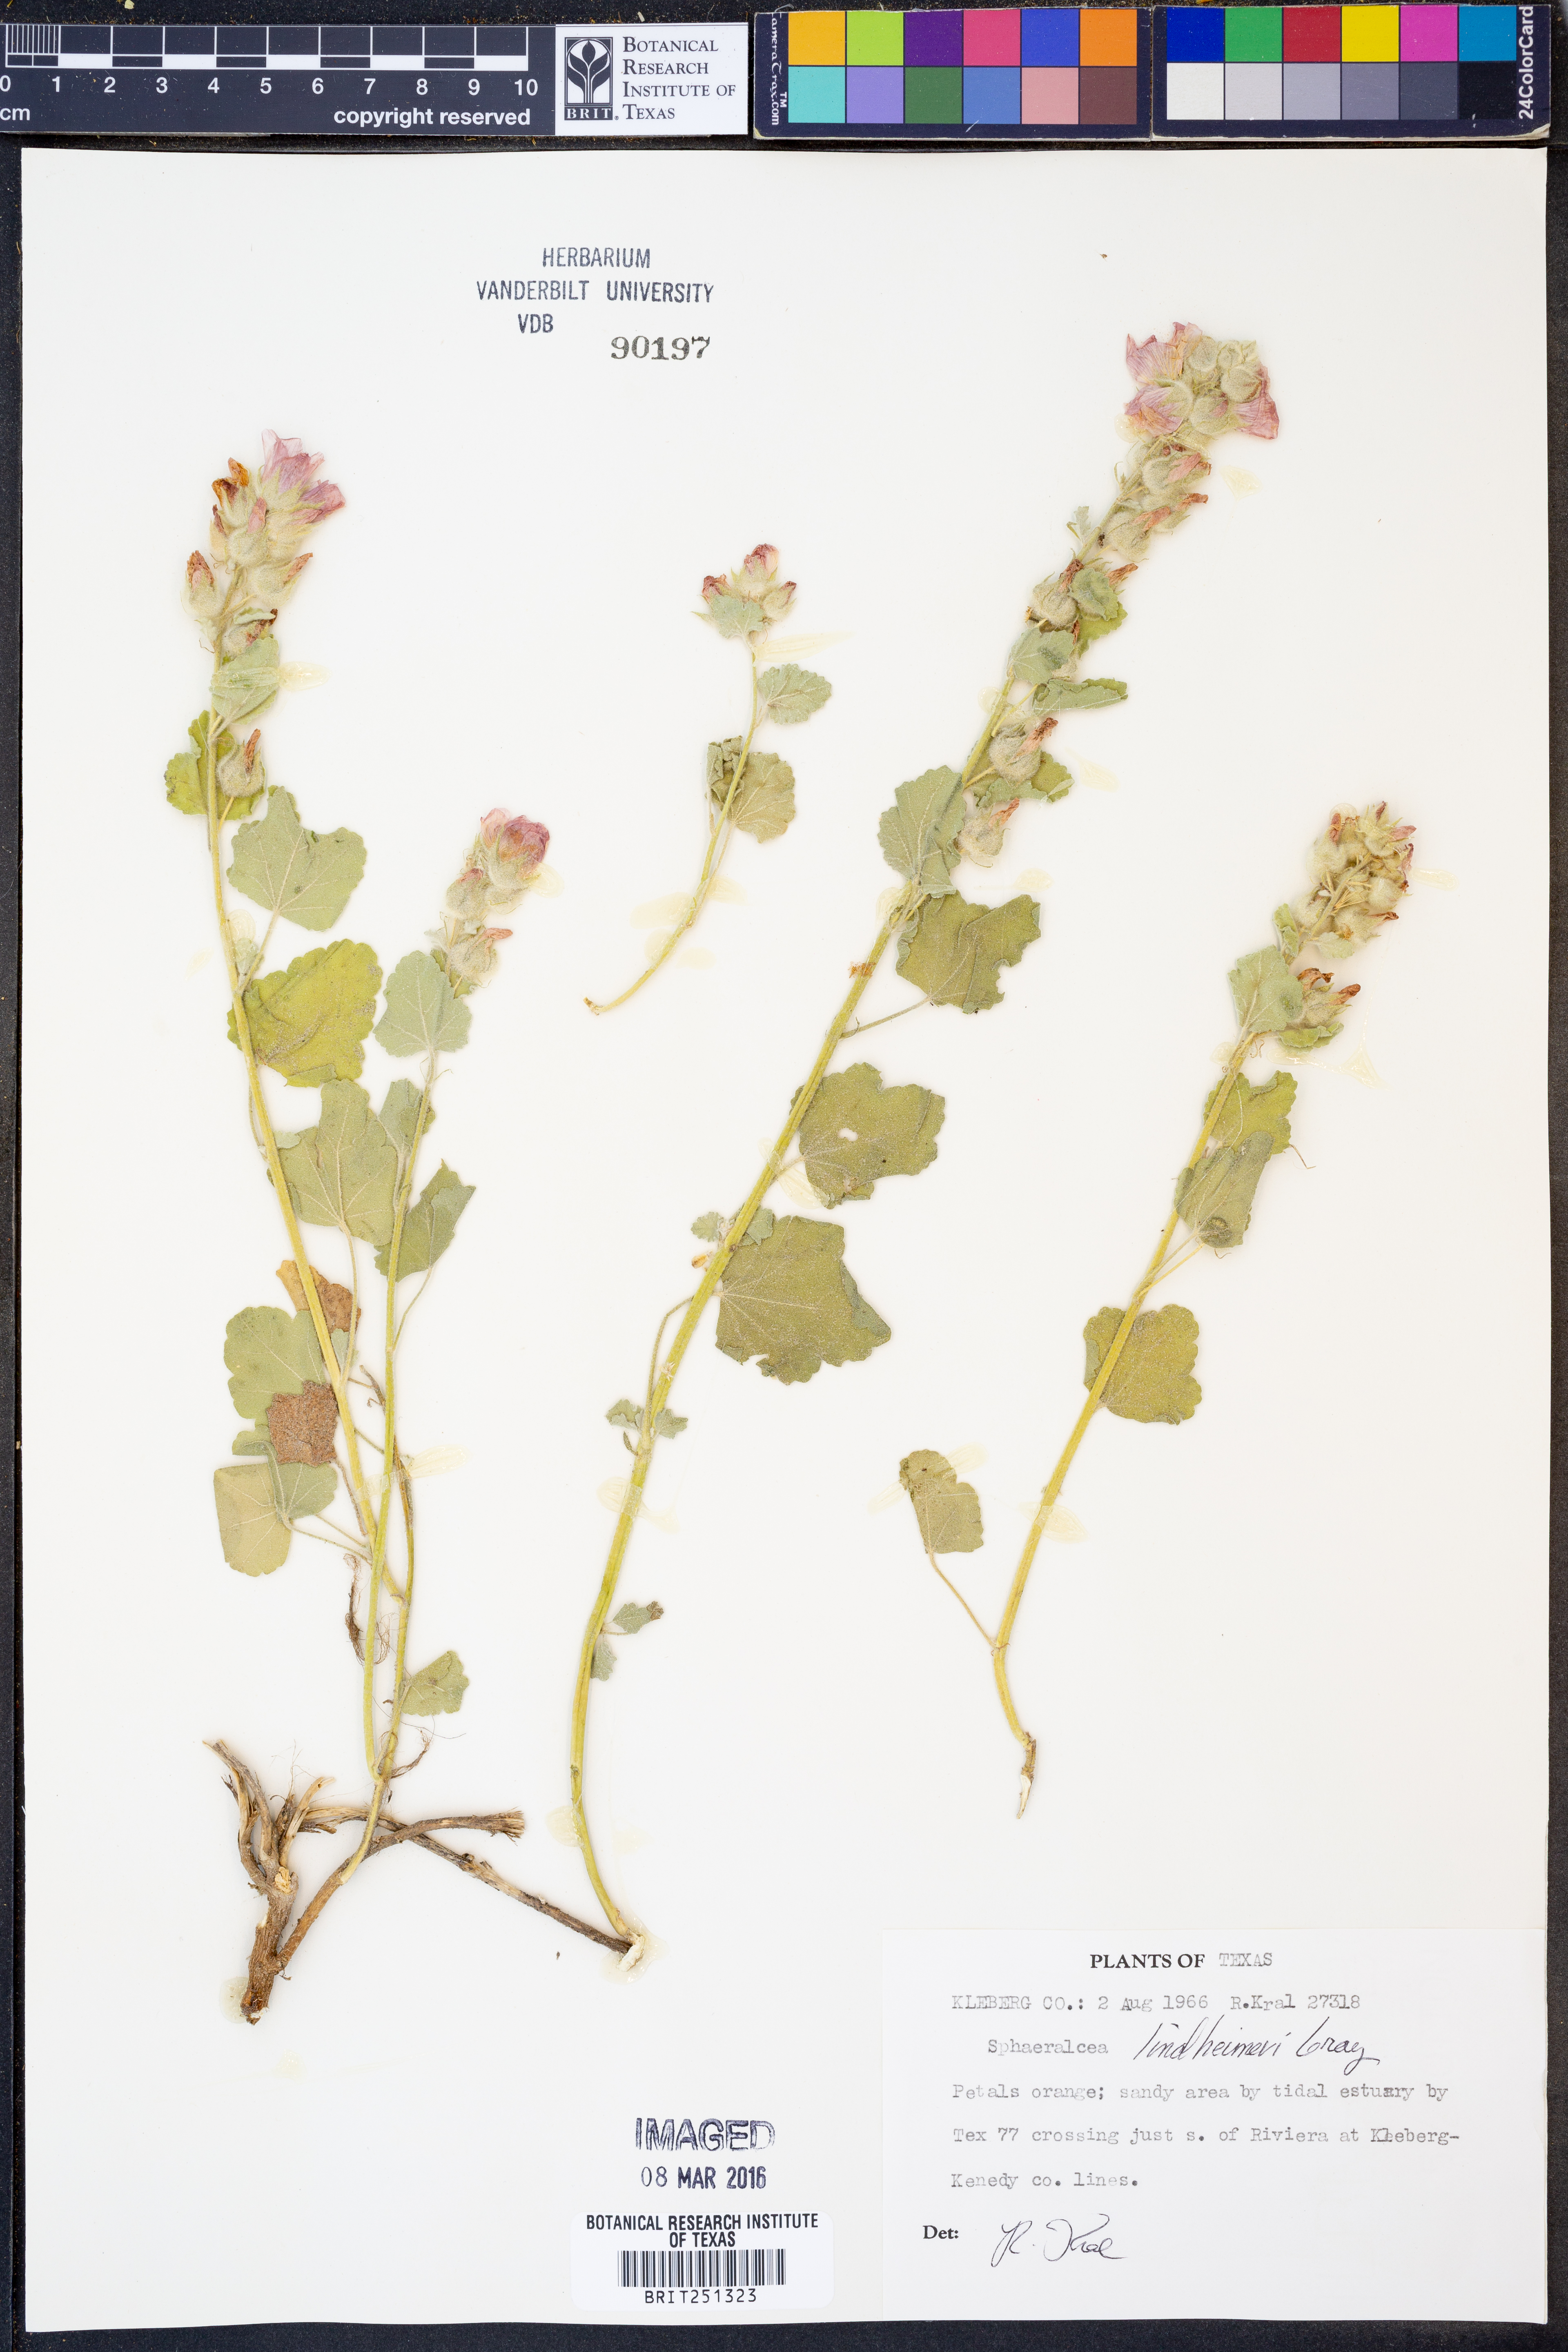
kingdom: Plantae
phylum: Tracheophyta
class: Magnoliopsida
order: Malvales
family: Malvaceae
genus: Sphaeralcea
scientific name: Sphaeralcea lindheimeri
